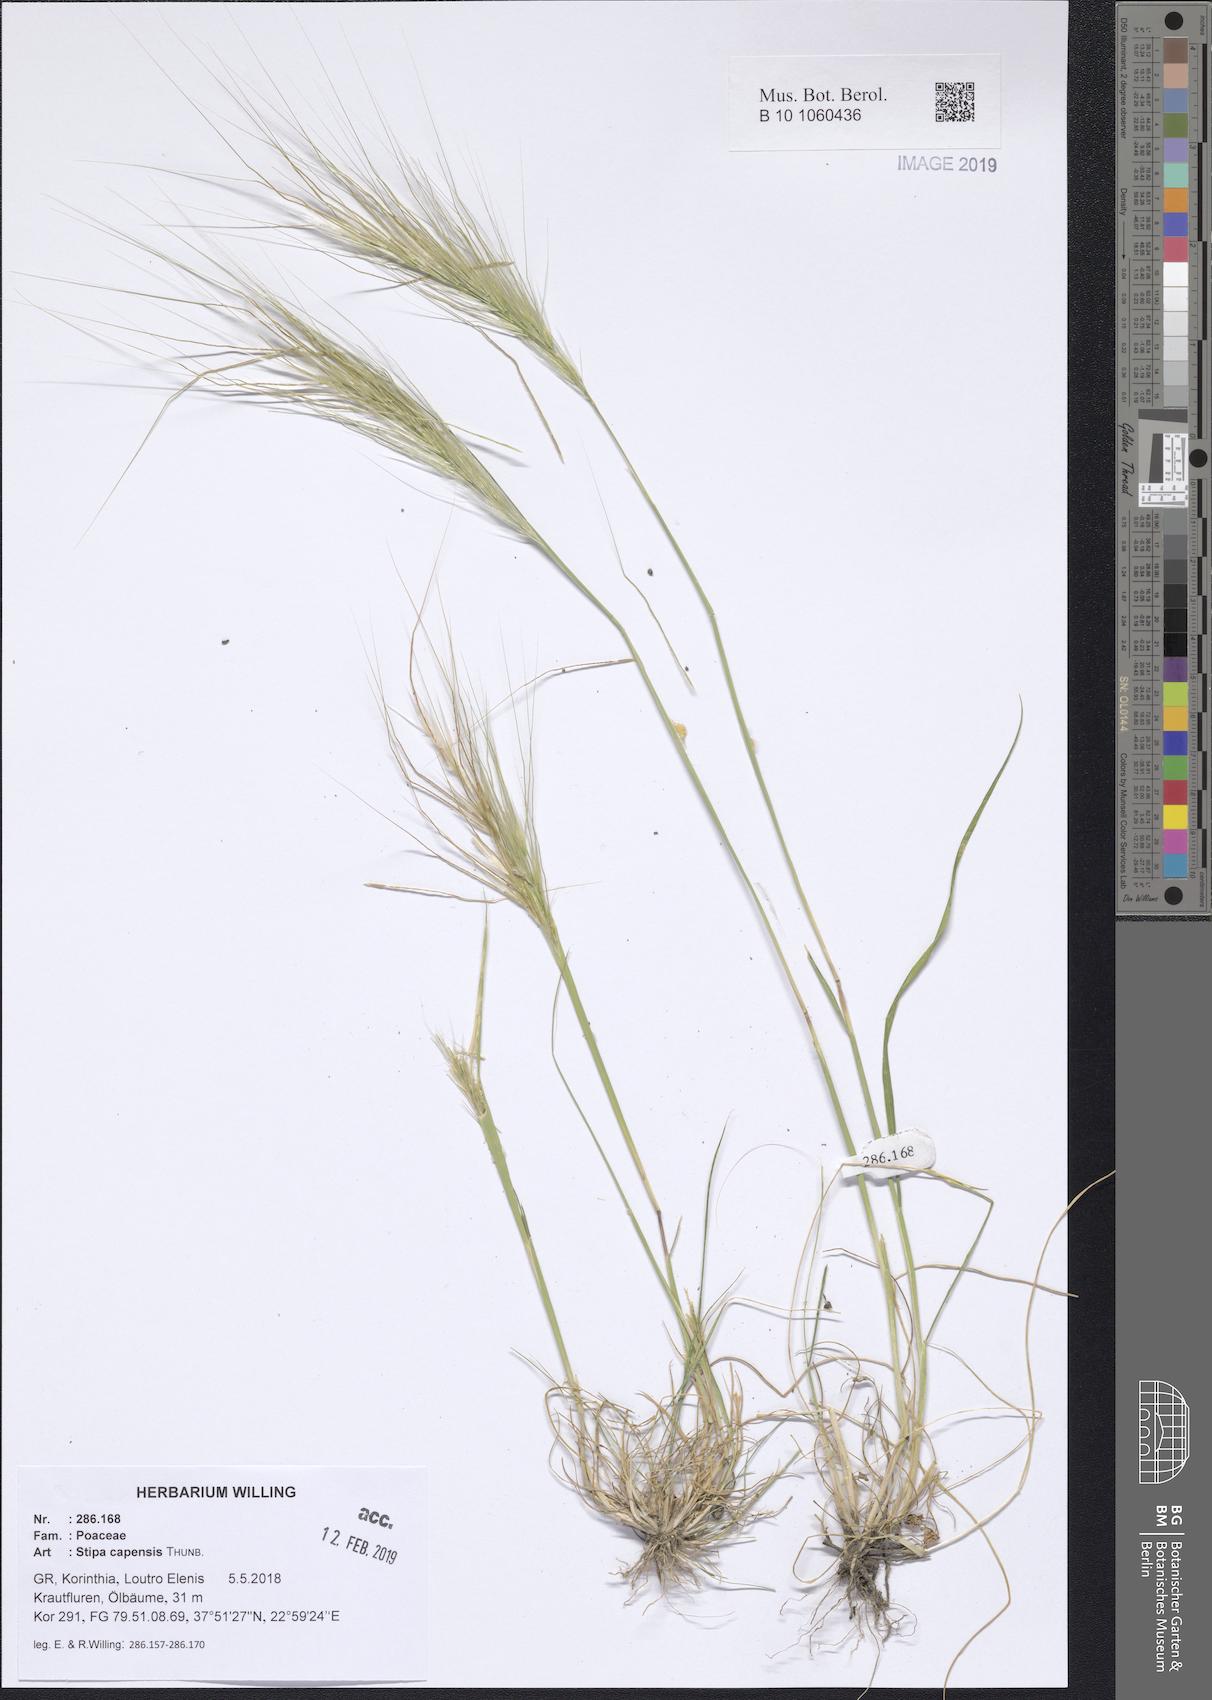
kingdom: Plantae
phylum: Tracheophyta
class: Liliopsida
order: Poales
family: Poaceae
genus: Stipellula
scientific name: Stipellula capensis
